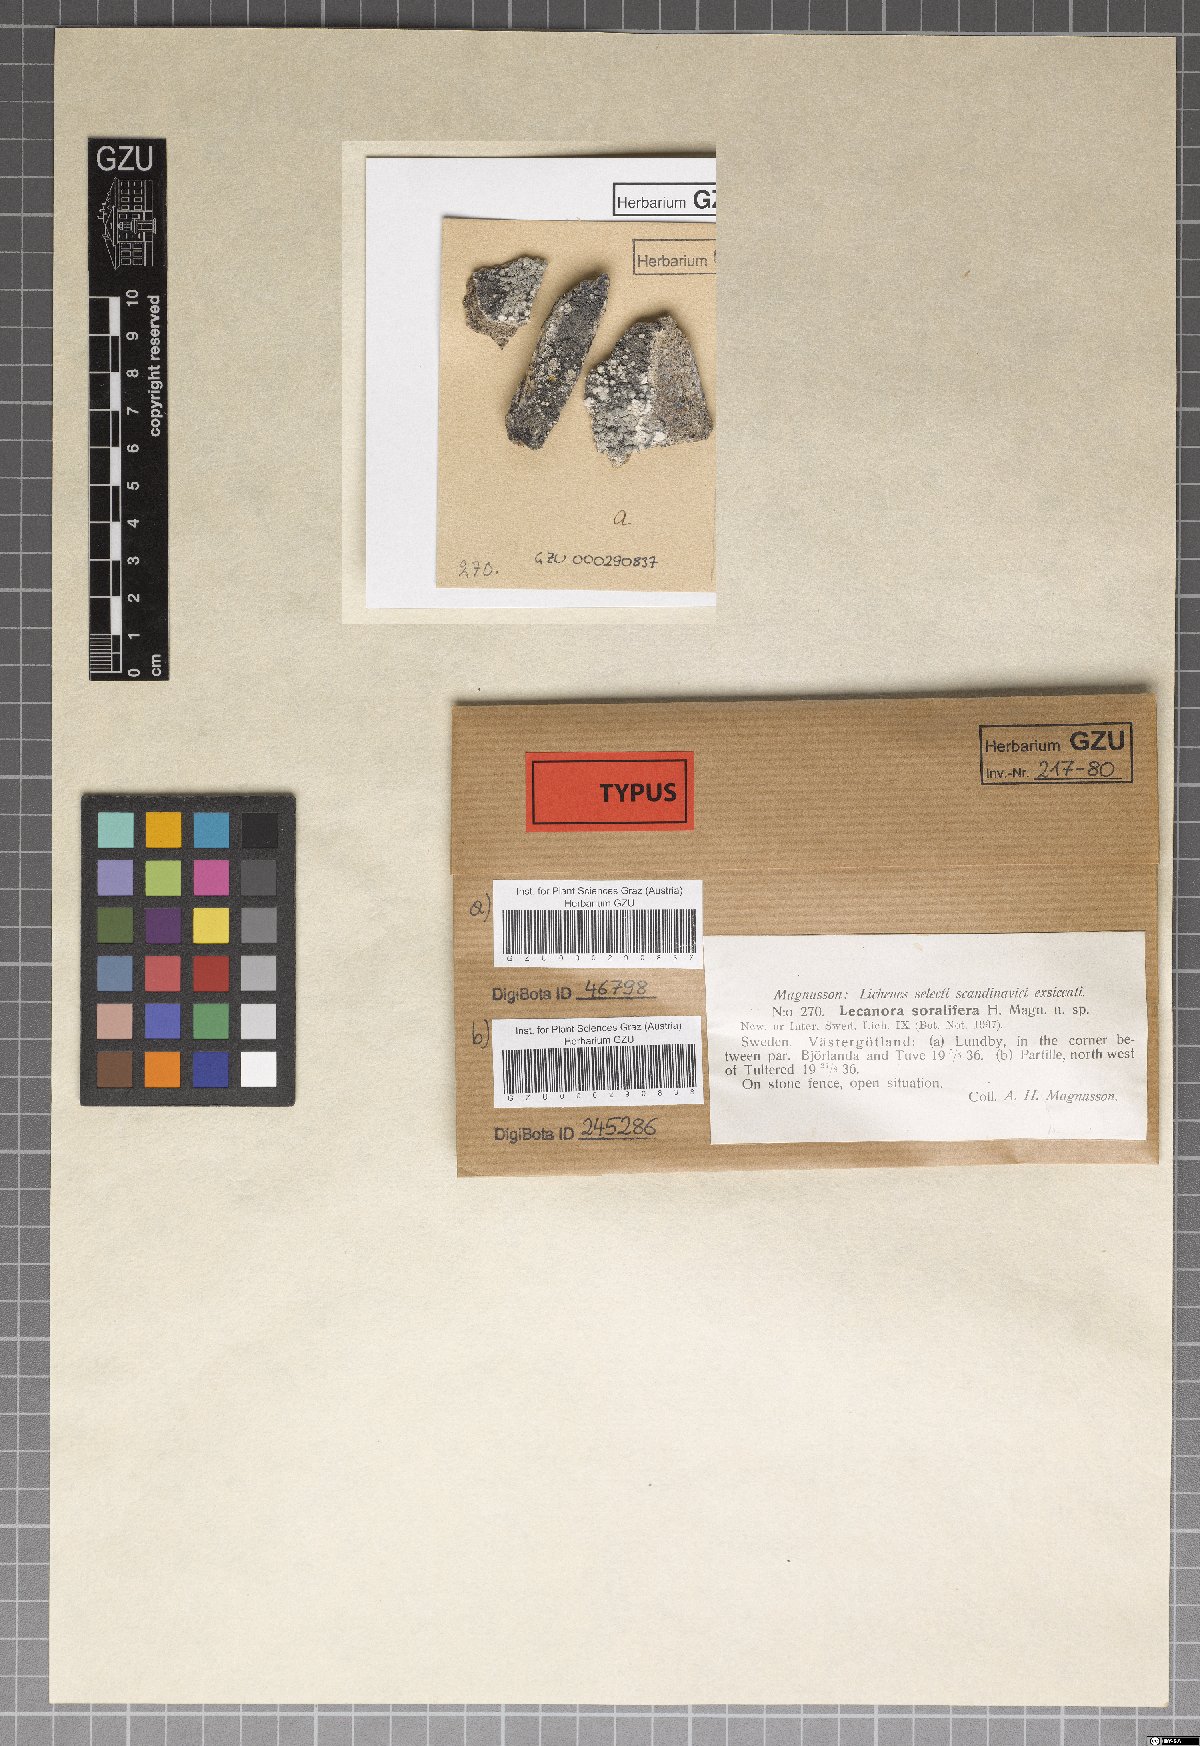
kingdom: Fungi
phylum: Ascomycota
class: Lecanoromycetes
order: Lecanorales
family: Lecanoraceae
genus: Lecanora
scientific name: Lecanora caesiosora
